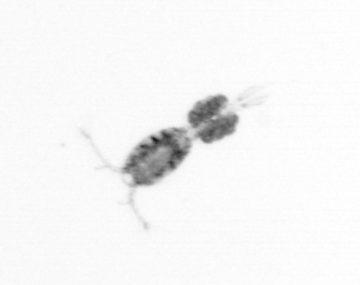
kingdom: Animalia
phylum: Arthropoda
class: Copepoda
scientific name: Copepoda
